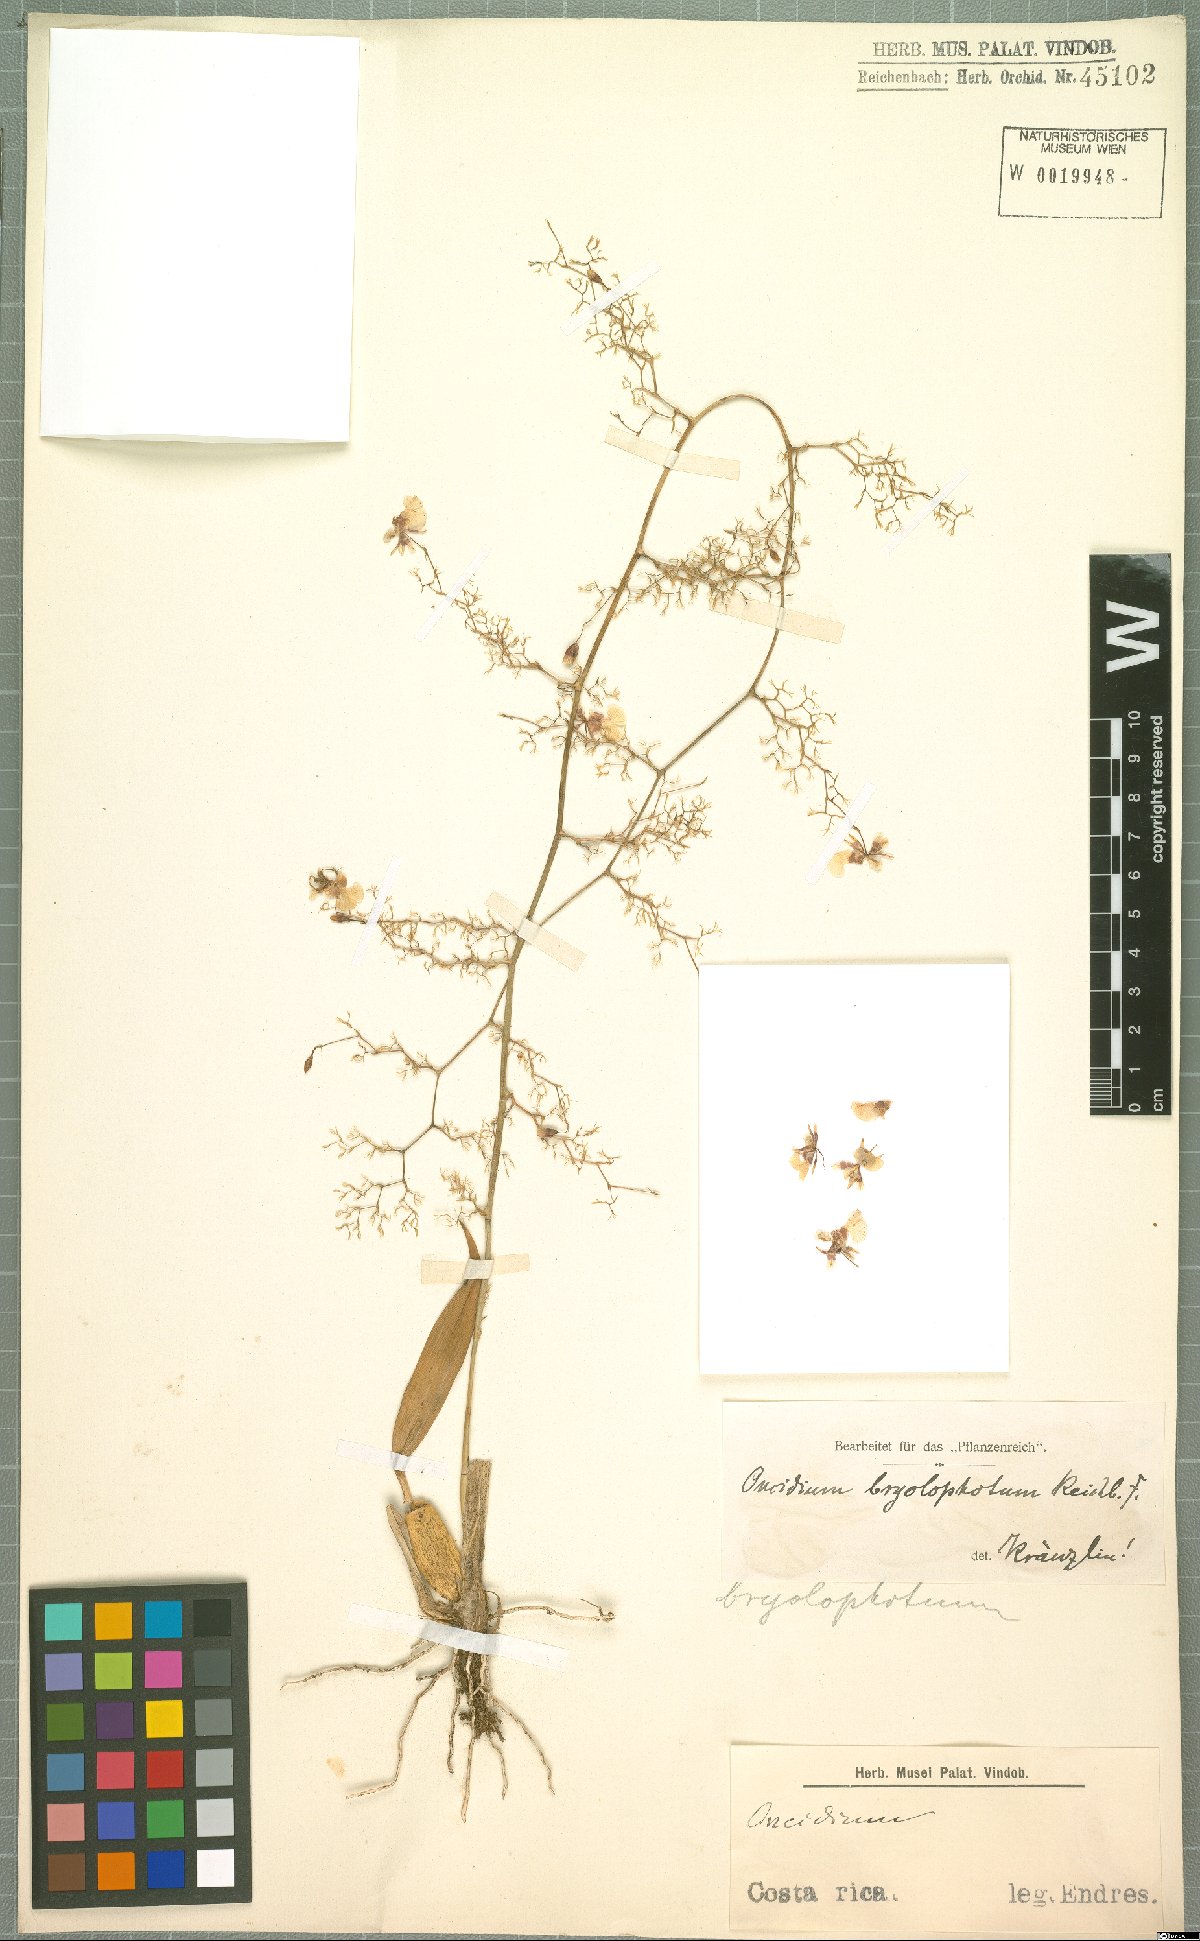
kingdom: Plantae
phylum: Tracheophyta
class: Liliopsida
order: Asparagales
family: Orchidaceae
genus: Oncidium
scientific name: Oncidium bryolophotum
